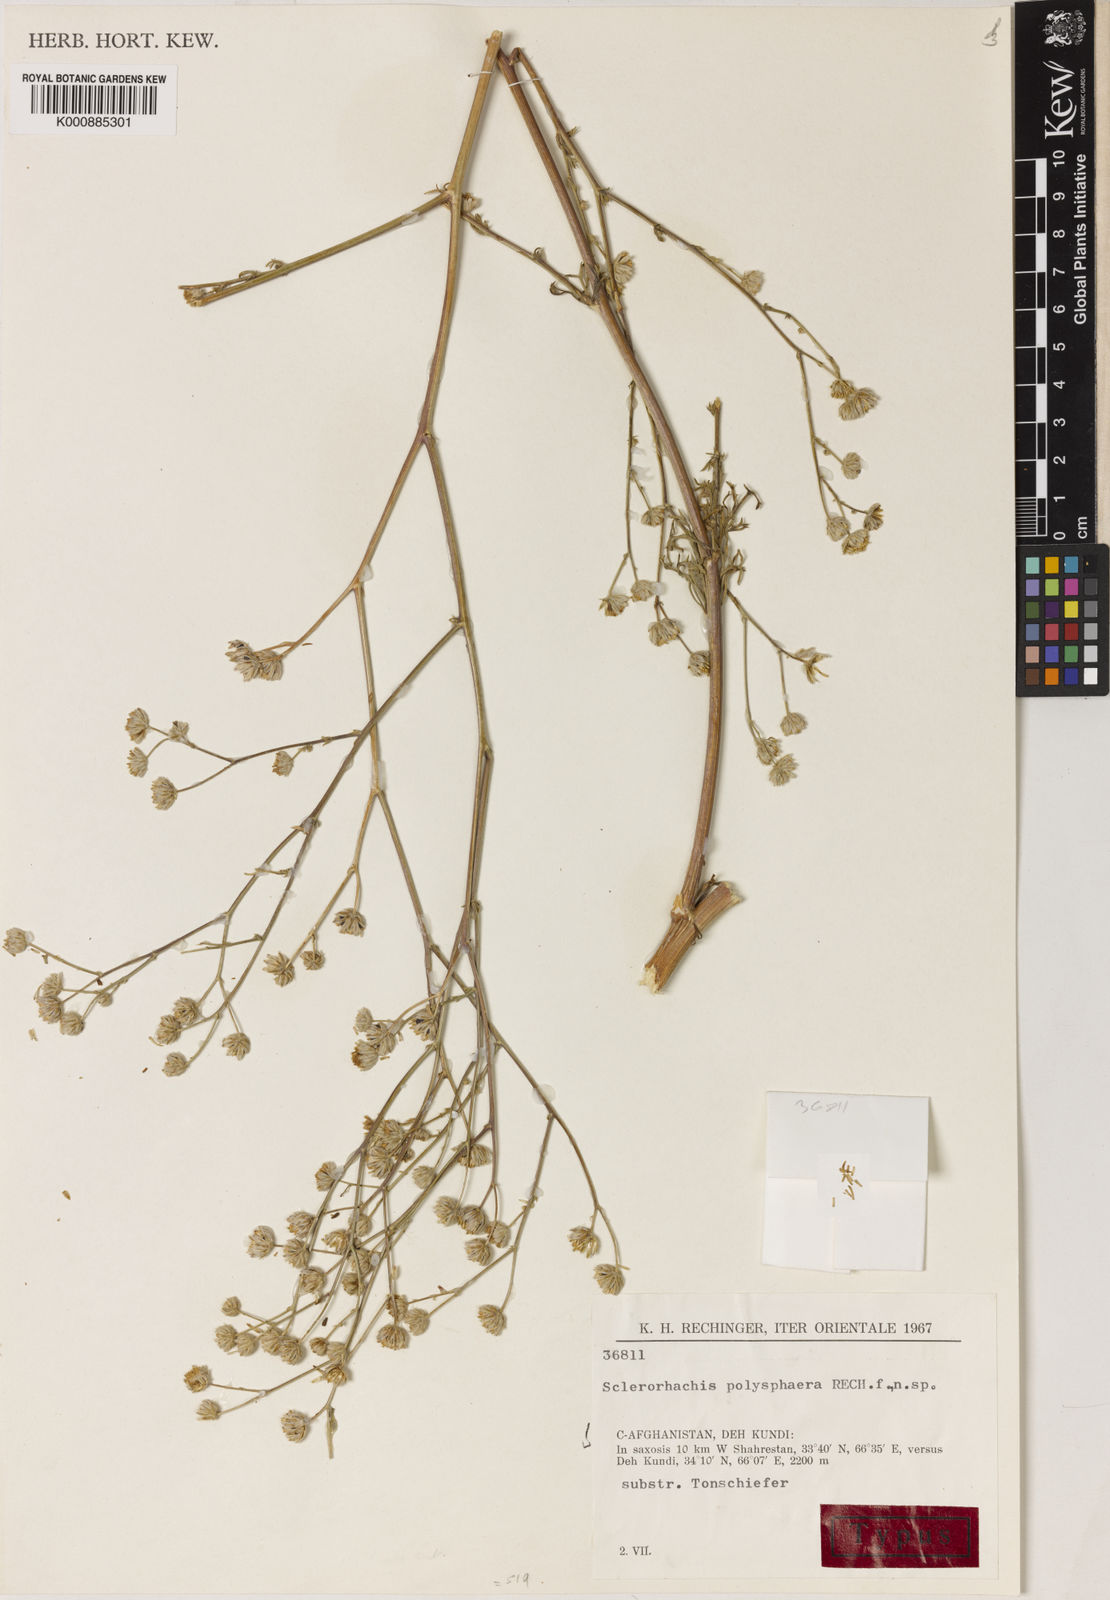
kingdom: Plantae
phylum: Tracheophyta
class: Magnoliopsida
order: Asterales
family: Asteraceae
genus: Sclerorhachis
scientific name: Sclerorhachis polysphaera
